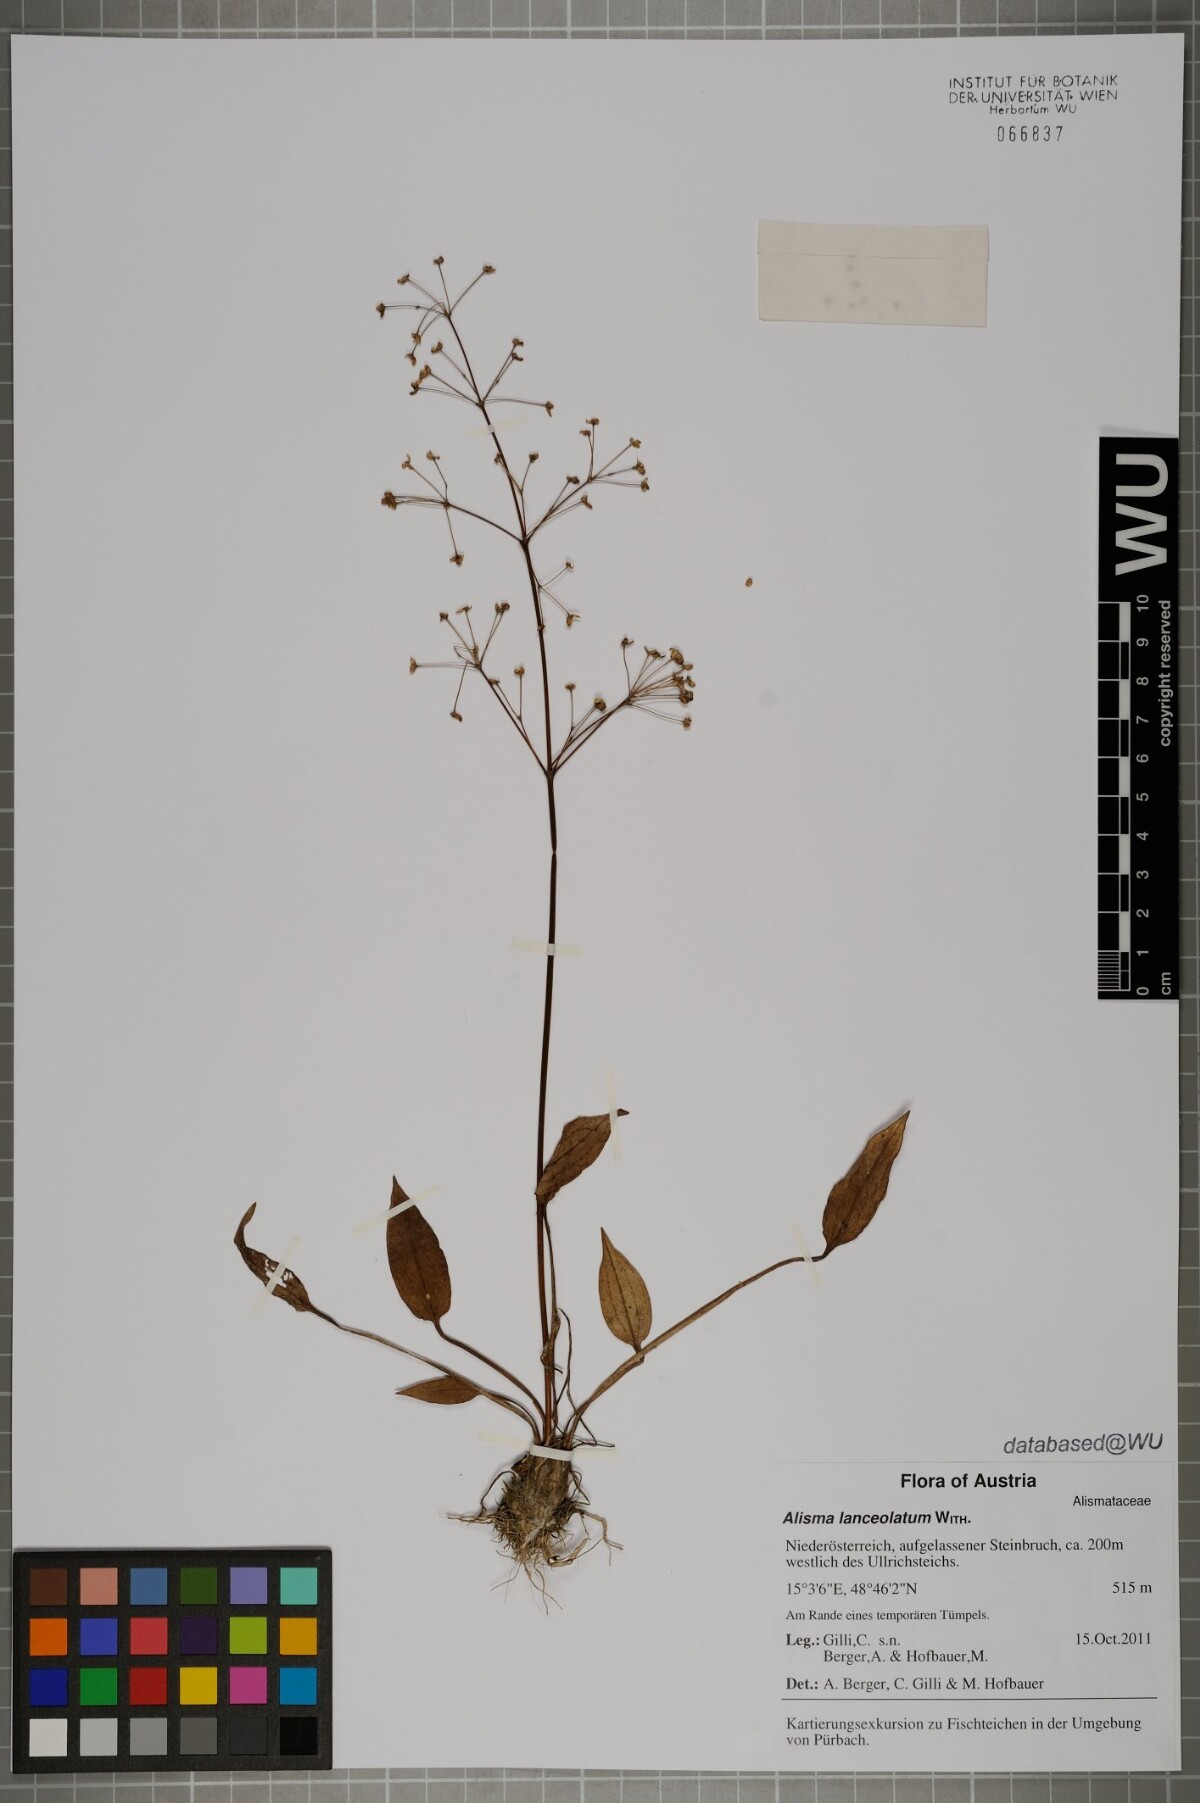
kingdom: Plantae
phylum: Tracheophyta
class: Liliopsida
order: Alismatales
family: Alismataceae
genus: Alisma
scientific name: Alisma plantago-aquatica
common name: Water-plantain
